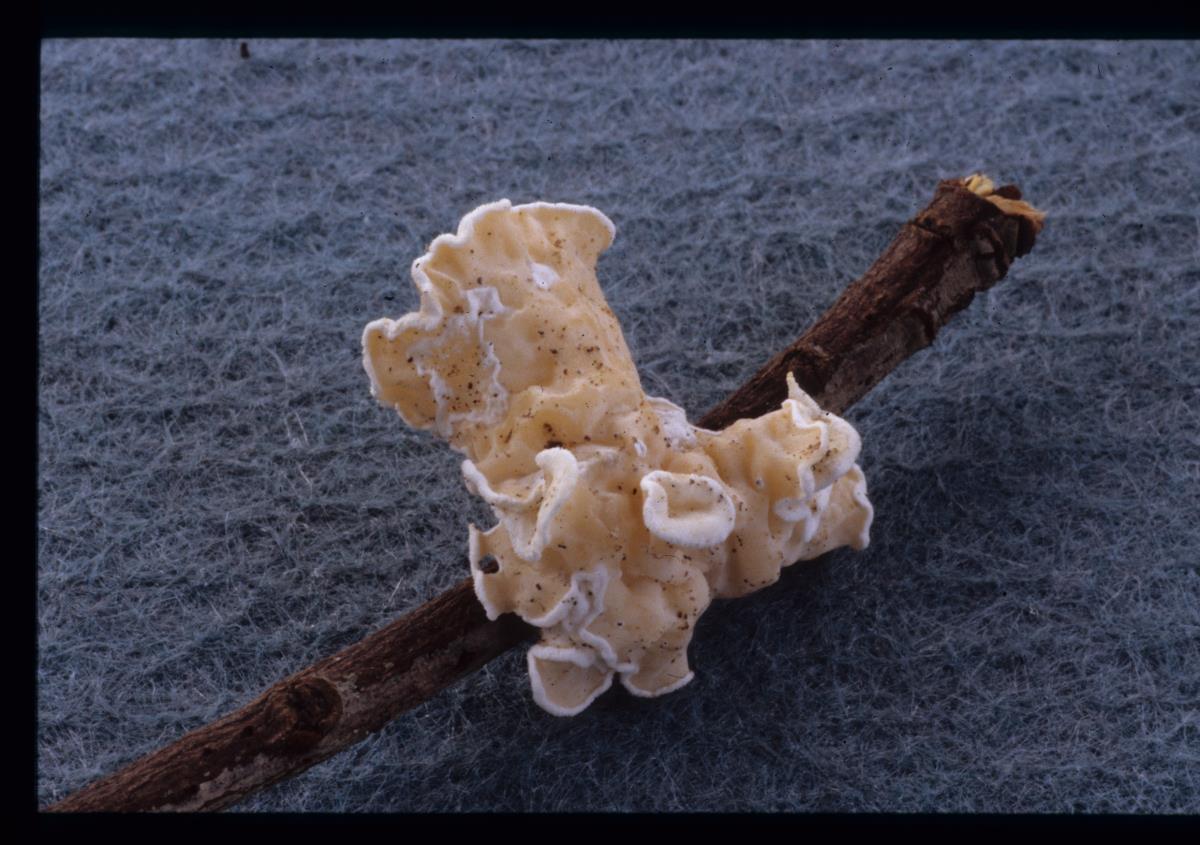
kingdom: Fungi
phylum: Basidiomycota
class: Agaricomycetes
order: Russulales
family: Stereaceae
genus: Stereum
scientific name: Stereum
